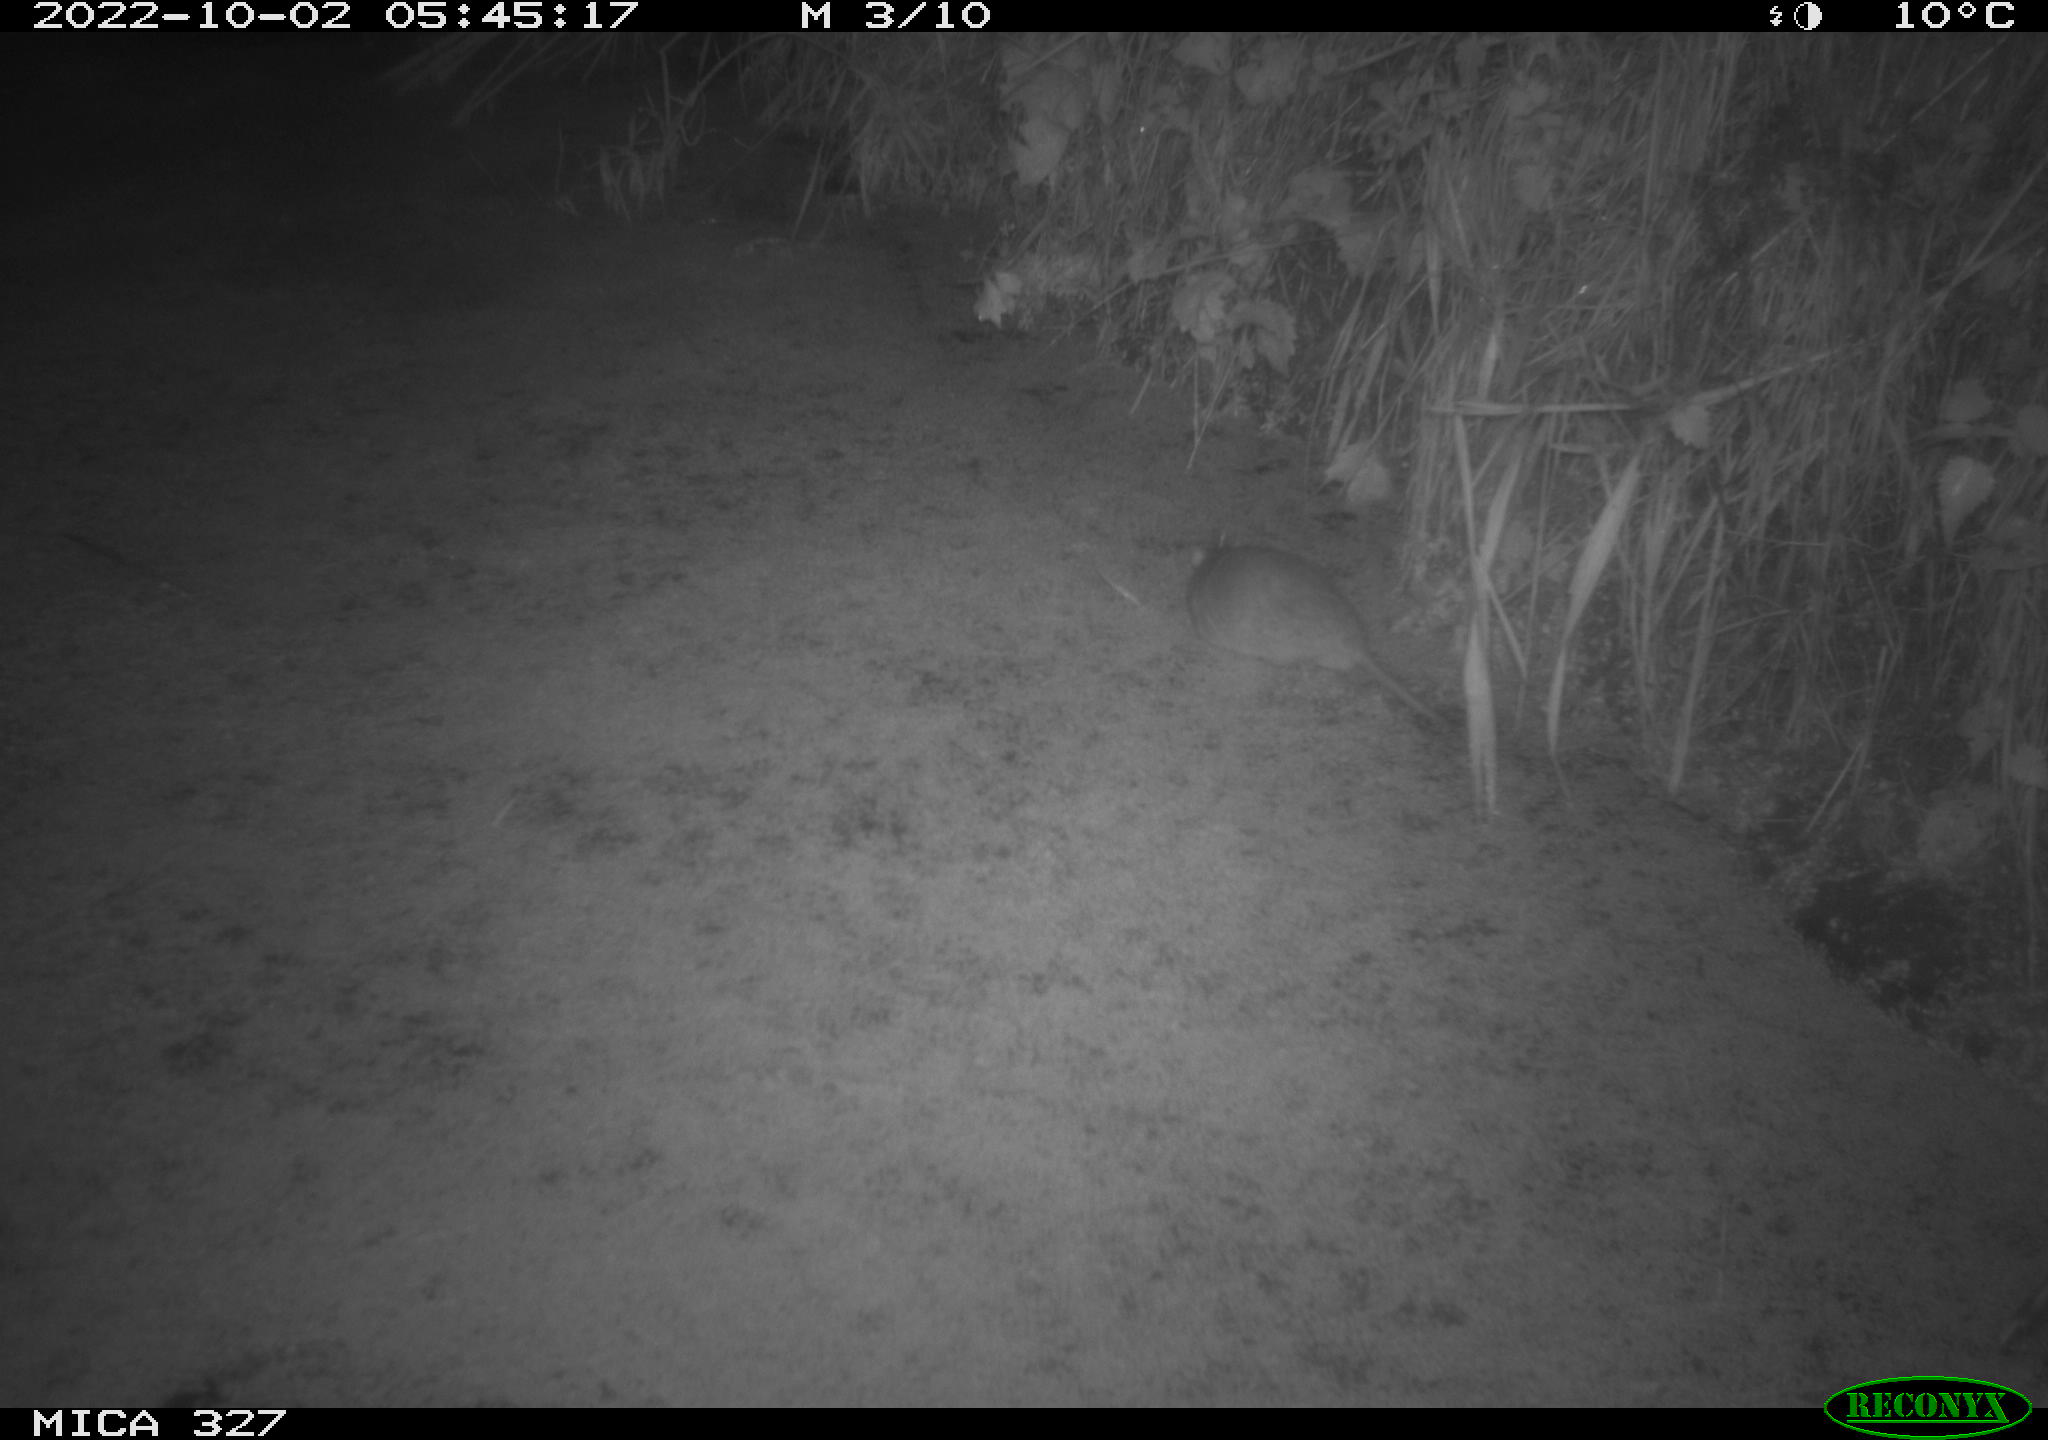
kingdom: Animalia
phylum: Chordata
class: Mammalia
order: Rodentia
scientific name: Rodentia
